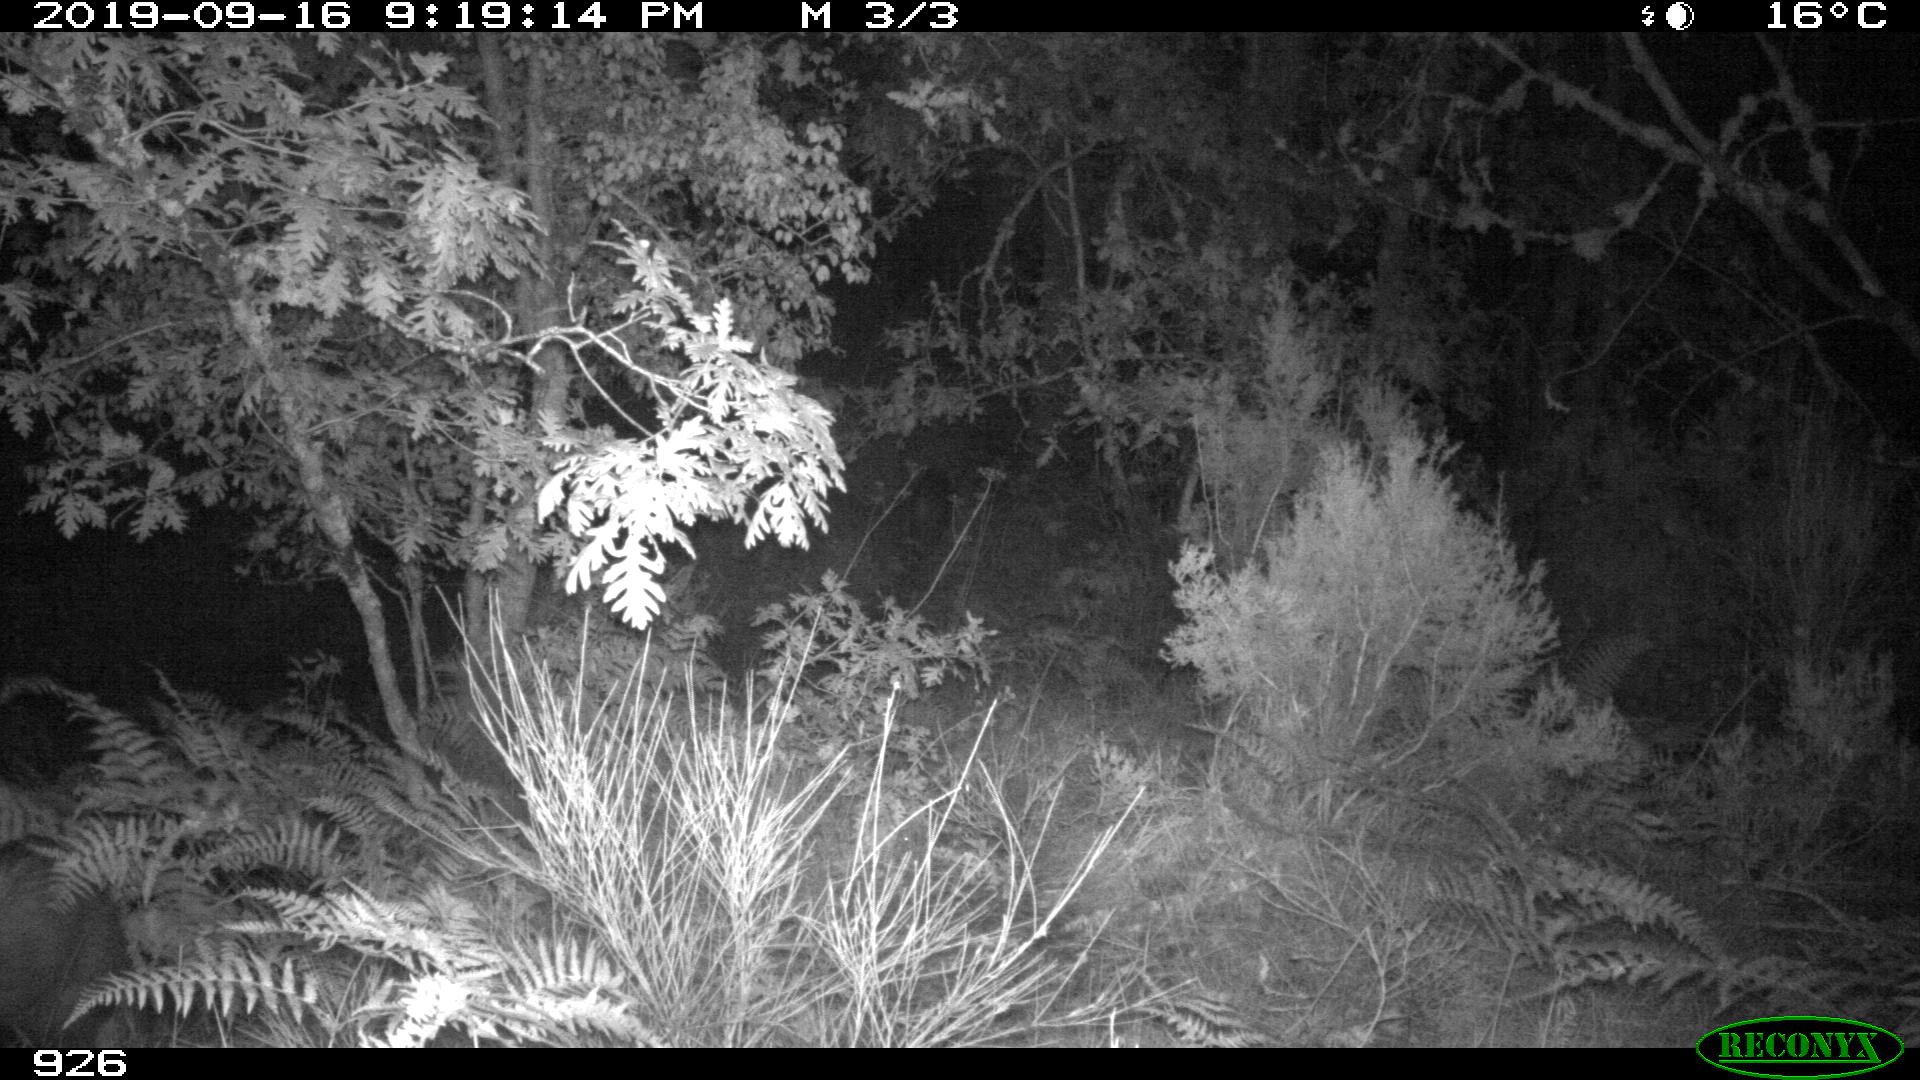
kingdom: Animalia
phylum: Chordata
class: Mammalia
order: Artiodactyla
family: Suidae
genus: Sus
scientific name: Sus scrofa
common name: Wild boar
